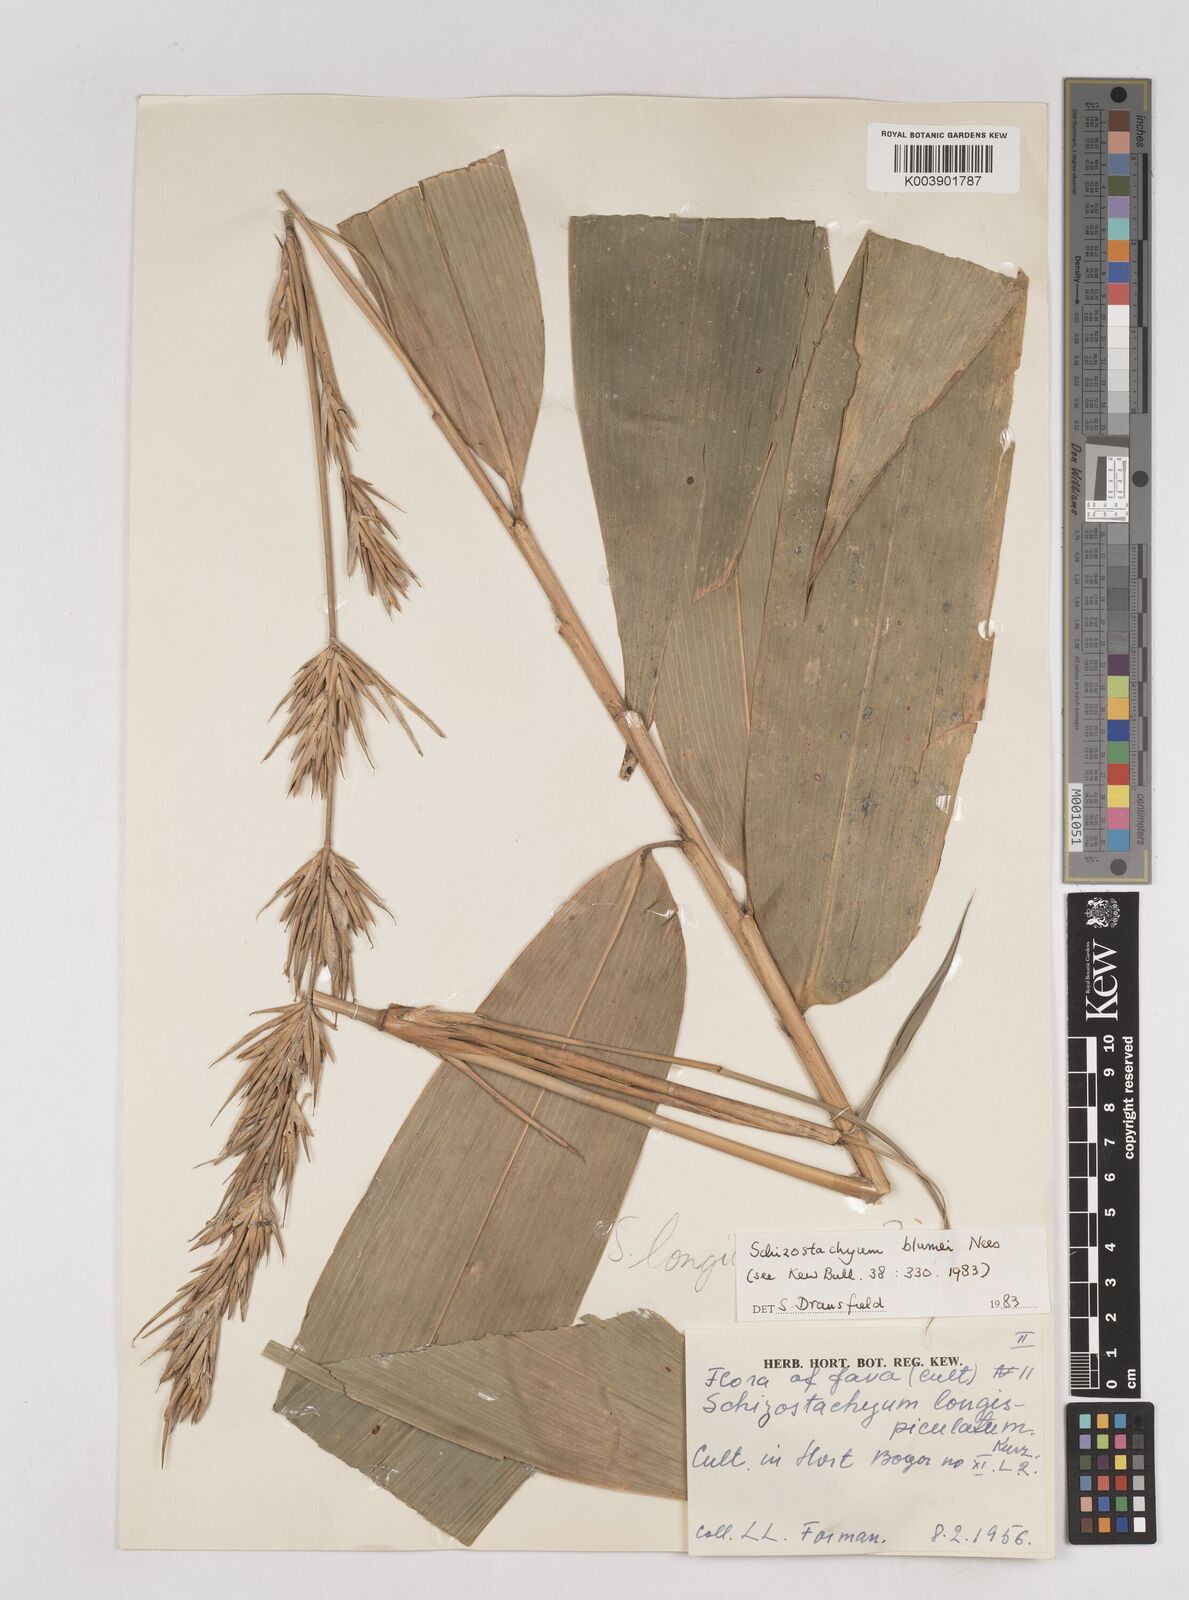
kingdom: Plantae
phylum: Tracheophyta
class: Liliopsida
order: Poales
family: Poaceae
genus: Schizostachyum
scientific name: Schizostachyum blumei
